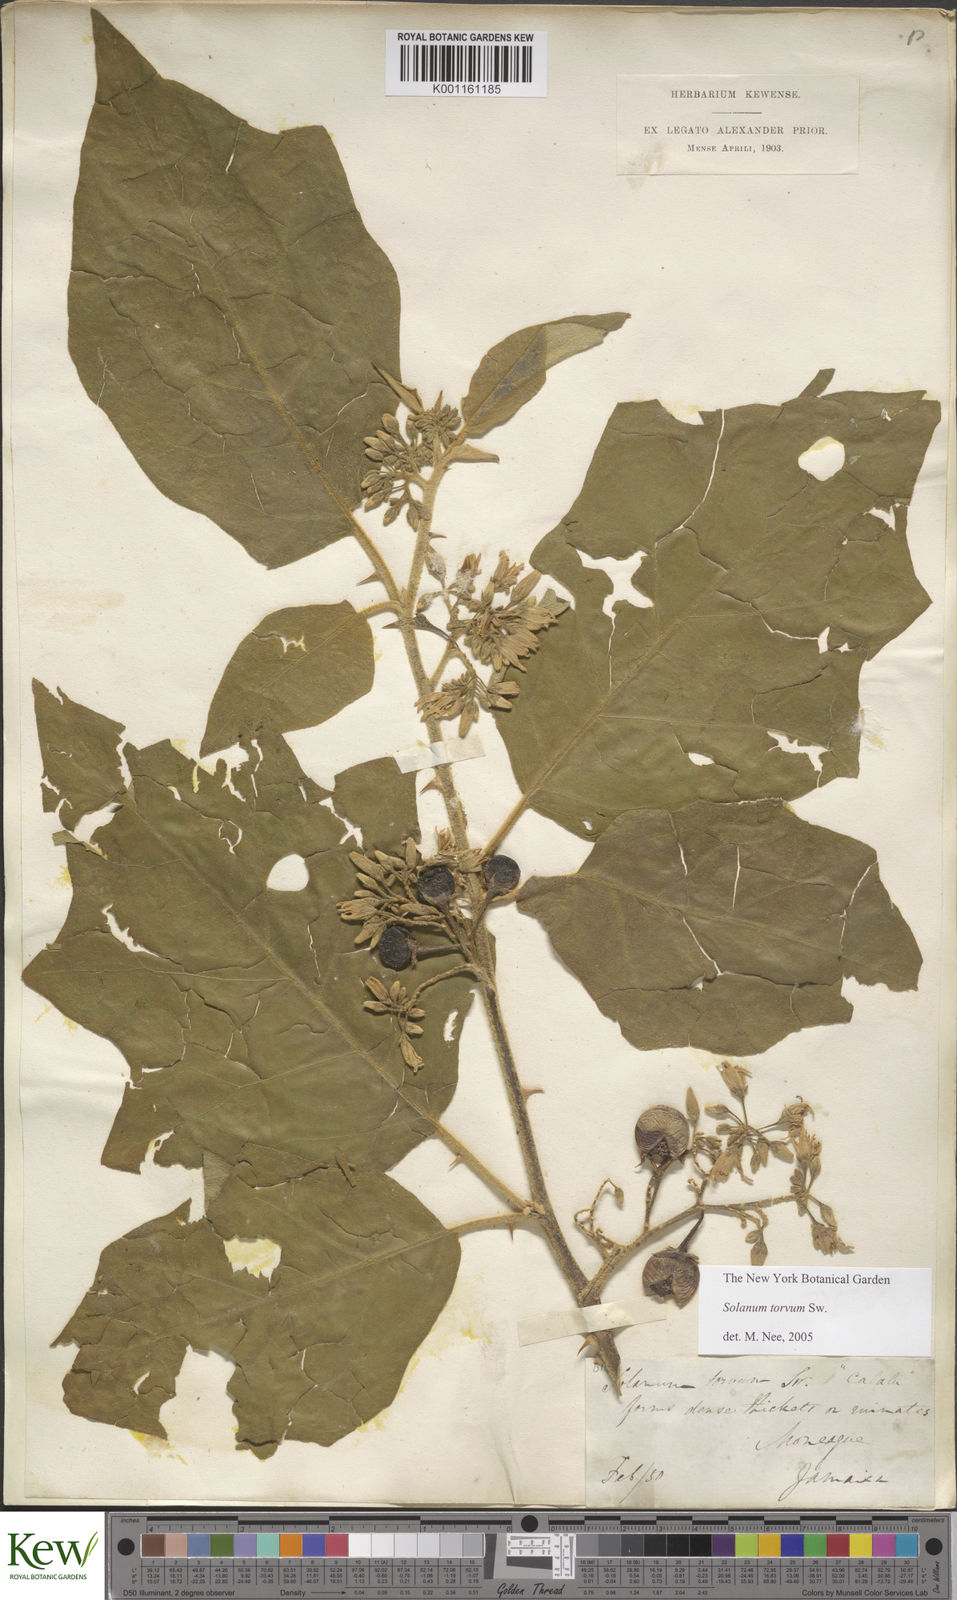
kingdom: Plantae
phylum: Tracheophyta
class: Magnoliopsida
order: Solanales
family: Solanaceae
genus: Solanum
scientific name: Solanum torvum
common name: Turkey berry
